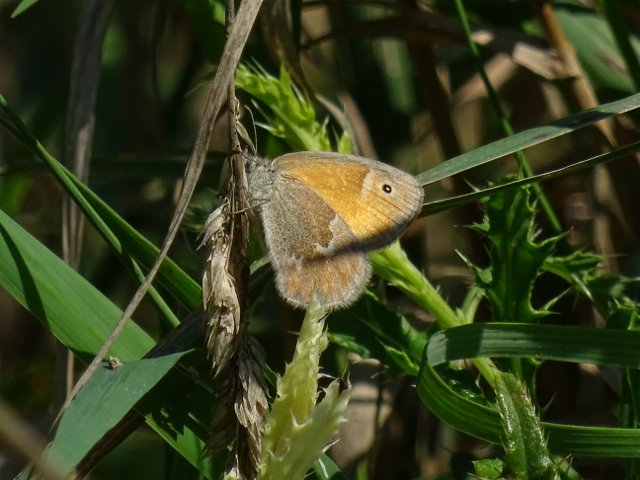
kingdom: Animalia
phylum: Arthropoda
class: Insecta
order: Lepidoptera
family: Nymphalidae
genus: Coenonympha
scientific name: Coenonympha tullia
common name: Large Heath
